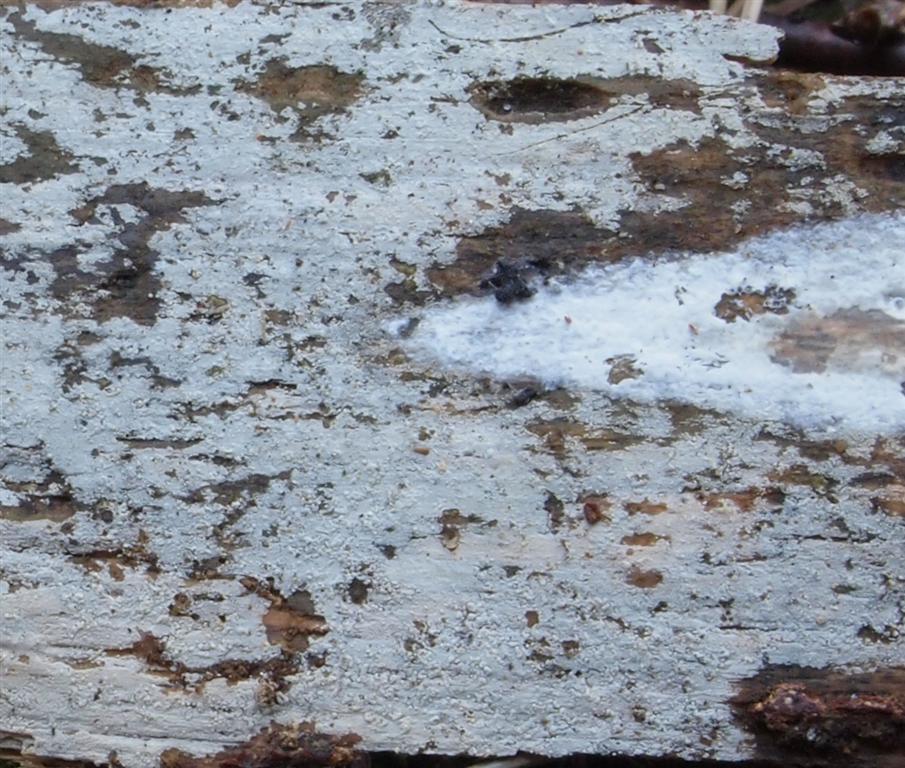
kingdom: Fungi
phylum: Basidiomycota
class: Agaricomycetes
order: Hymenochaetales
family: Hyphodontiaceae
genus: Hyphodontia
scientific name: Hyphodontia pallidula
